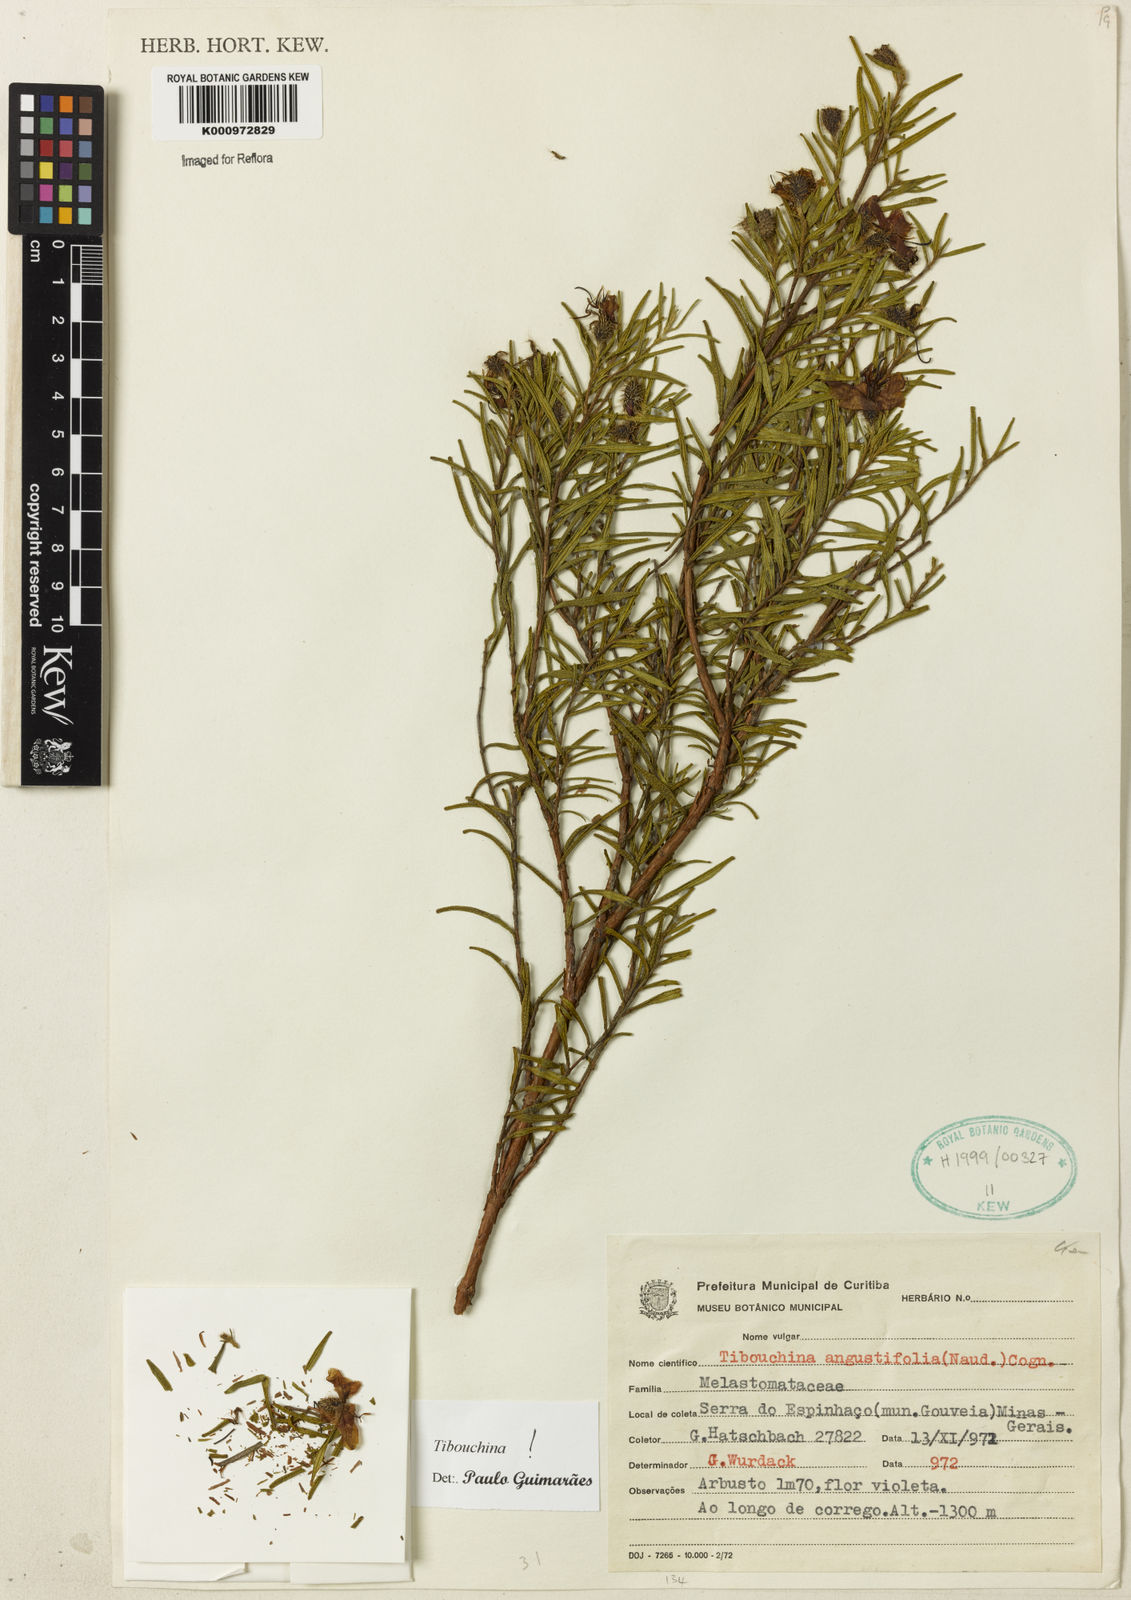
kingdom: Plantae
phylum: Tracheophyta
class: Magnoliopsida
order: Myrtales
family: Melastomataceae
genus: Pleroma
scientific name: Pleroma angustifolium
